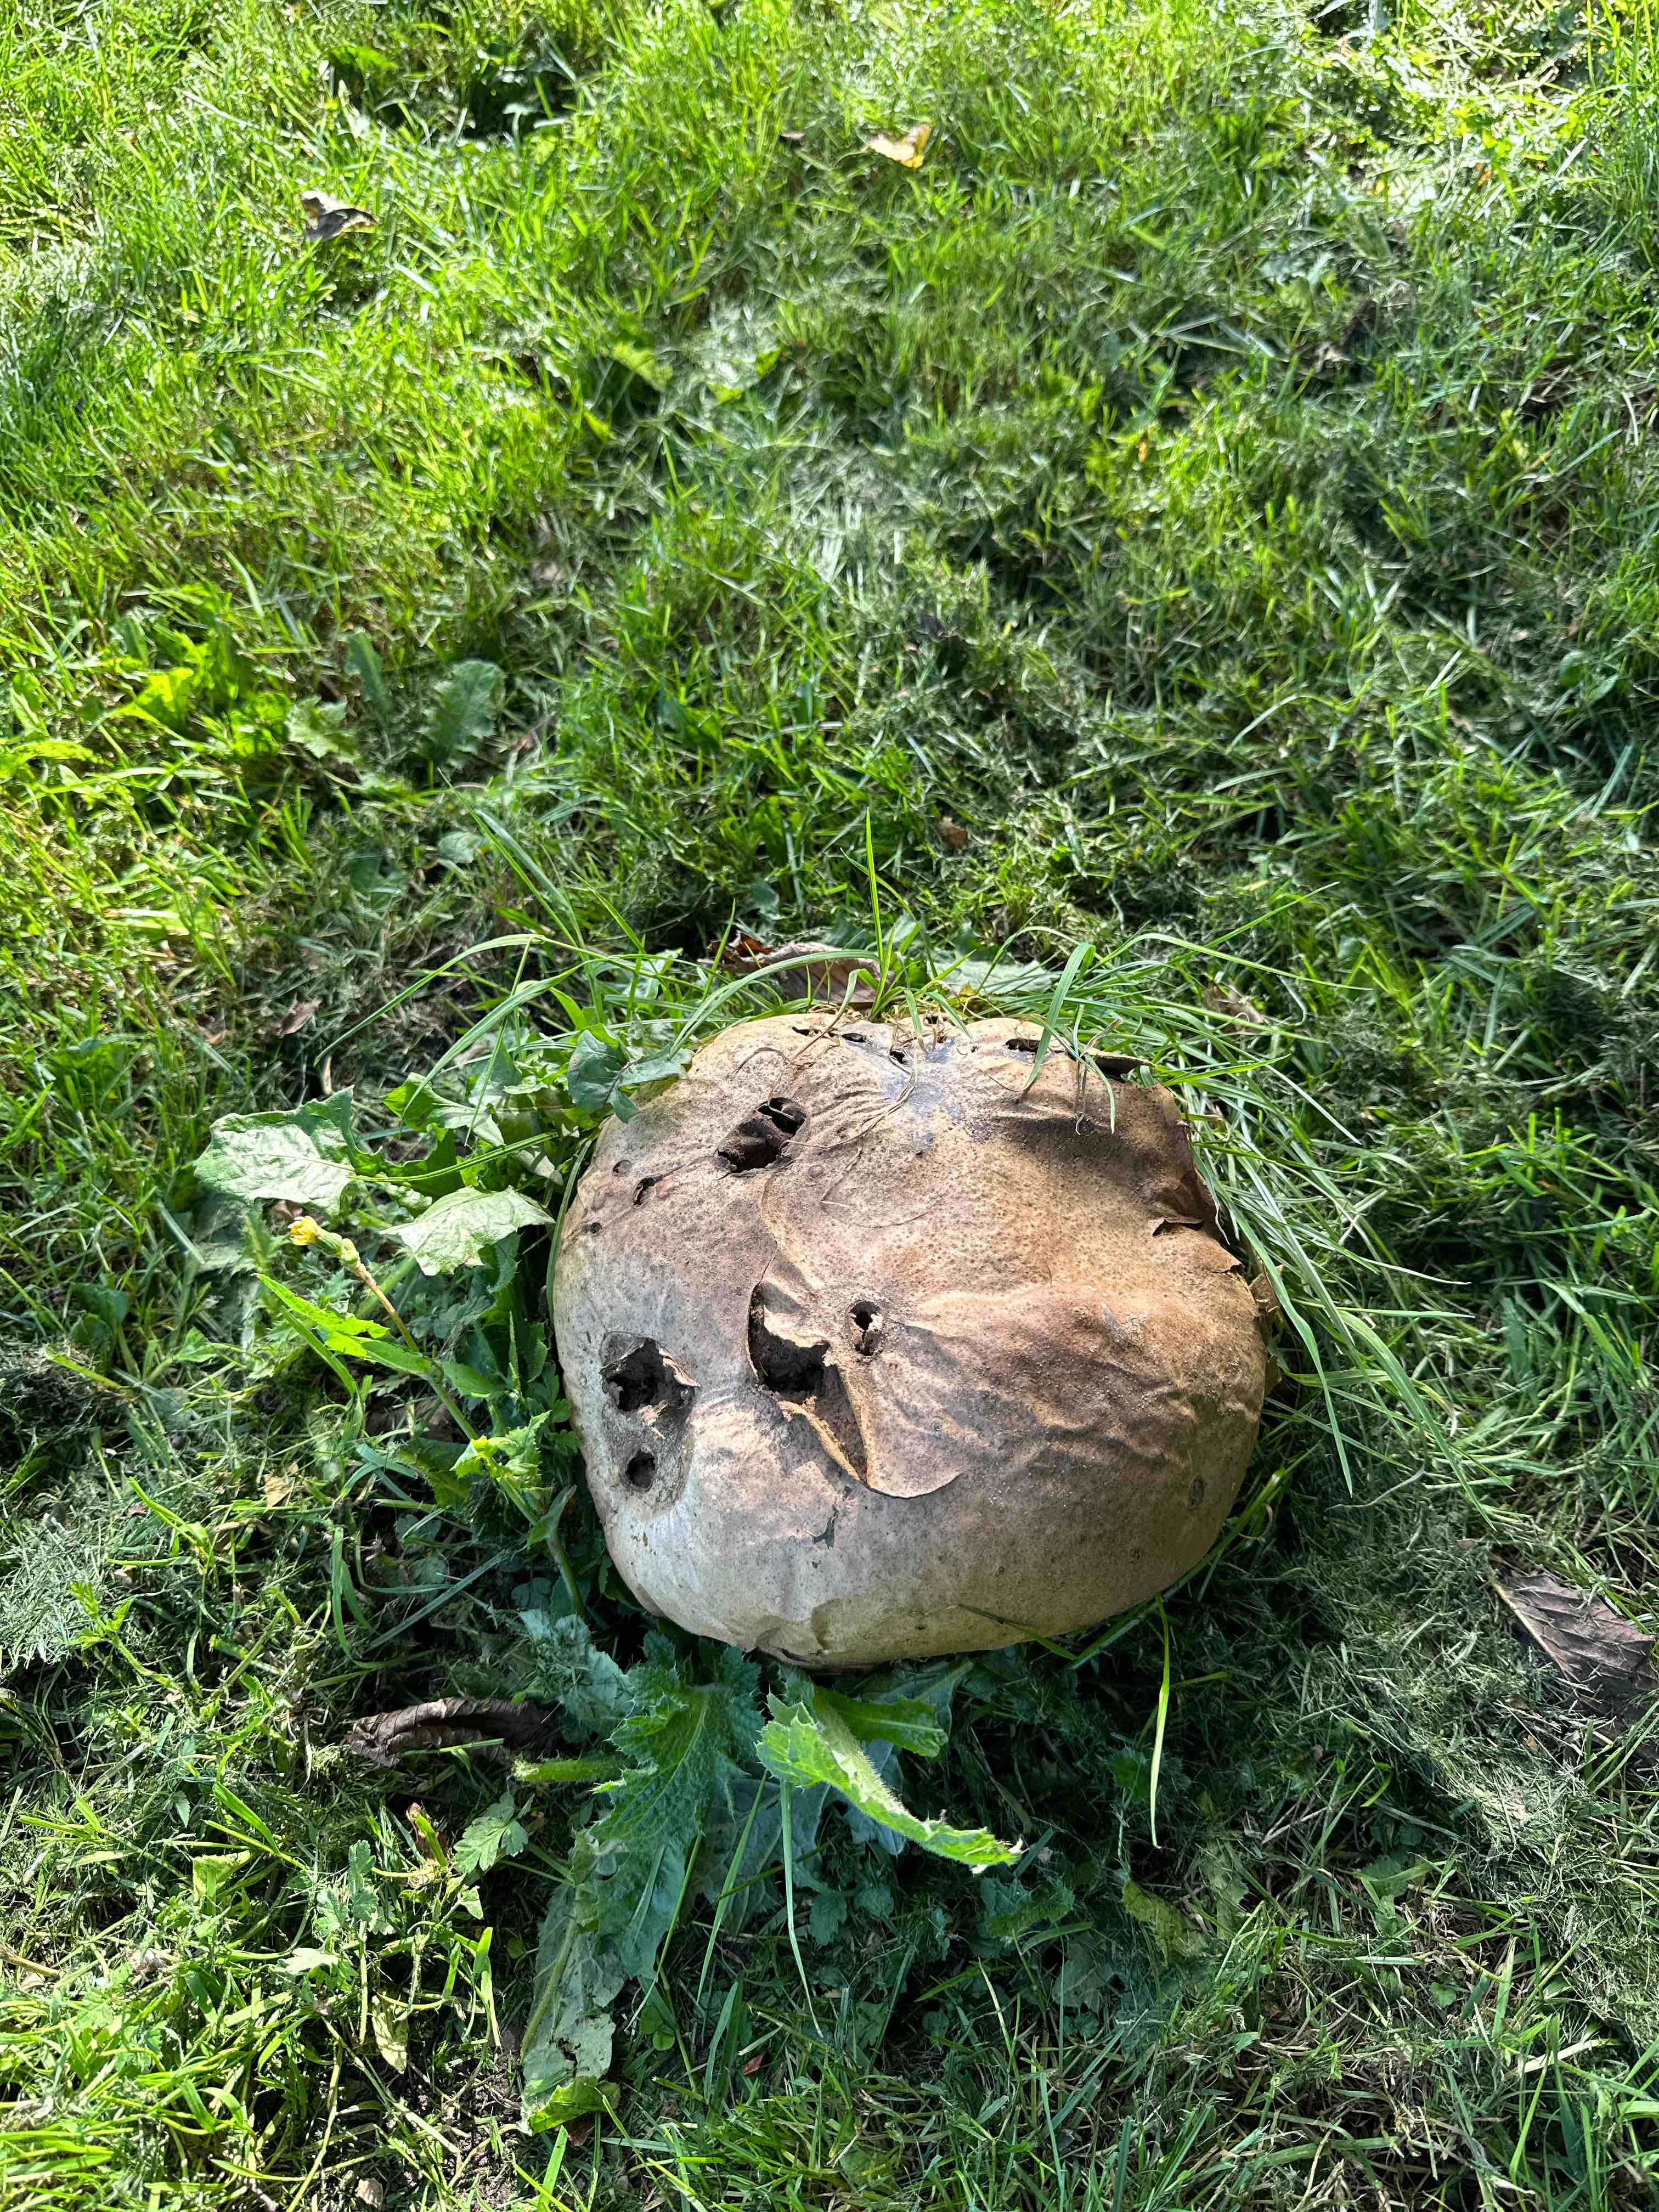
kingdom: Fungi
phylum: Basidiomycota
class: Agaricomycetes
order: Agaricales
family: Lycoperdaceae
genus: Calvatia
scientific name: Calvatia gigantea
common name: kæmpestøvbold
